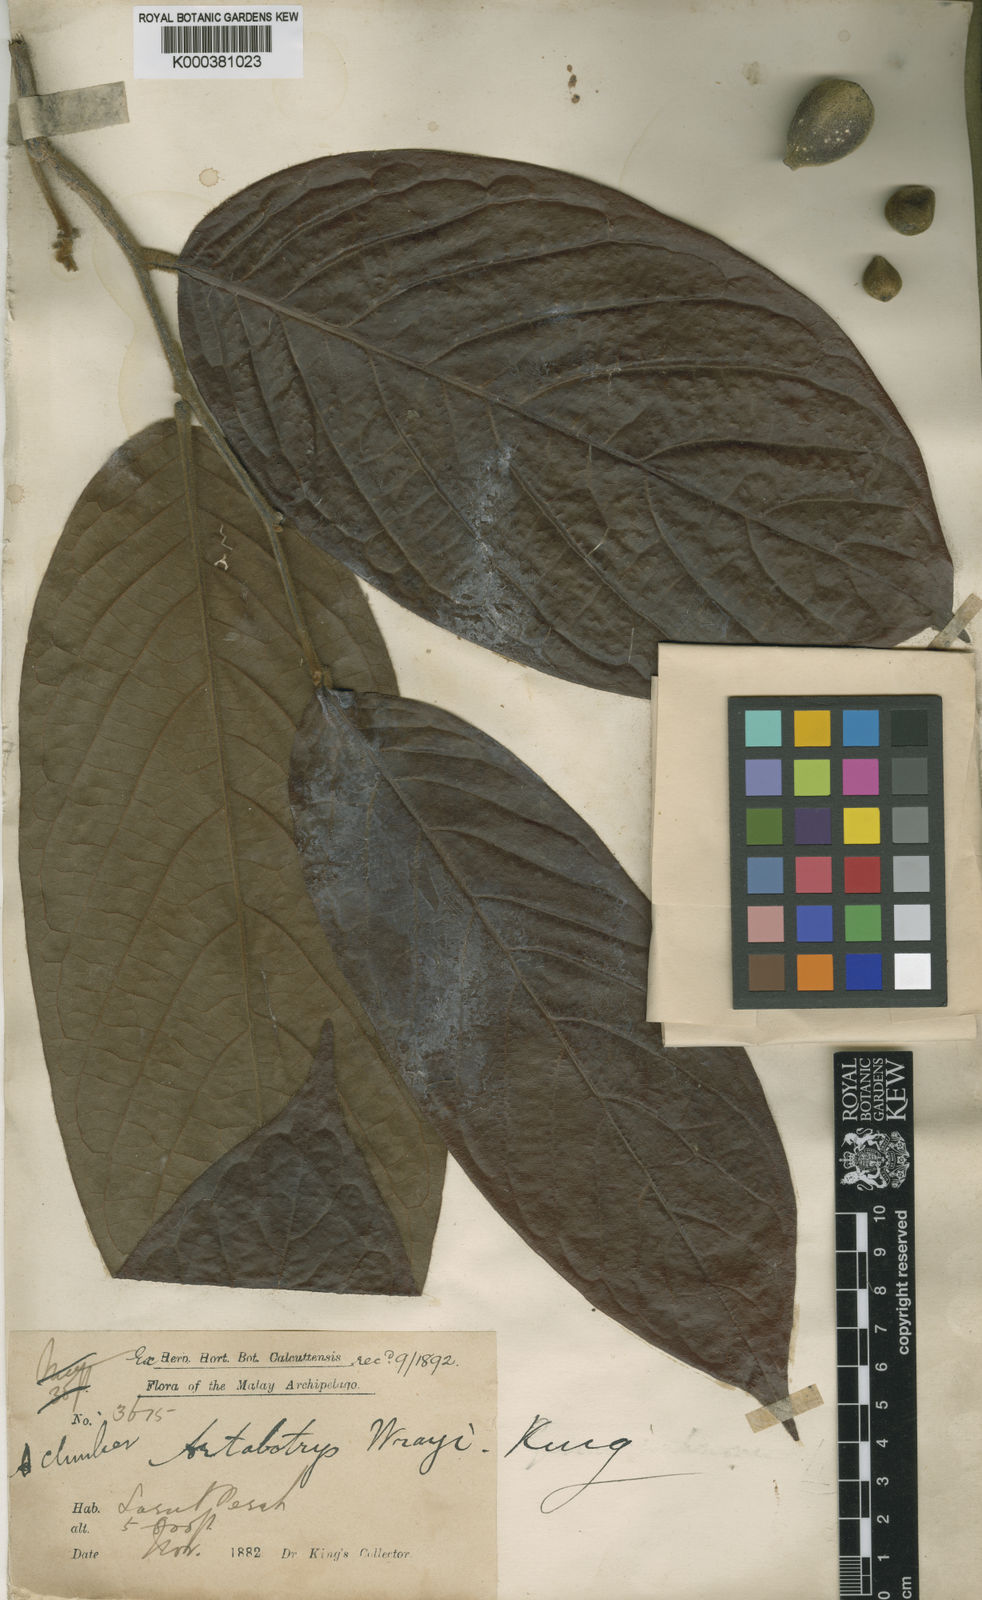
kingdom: Plantae
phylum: Tracheophyta
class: Magnoliopsida
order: Magnoliales
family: Annonaceae
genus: Artabotrys
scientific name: Artabotrys wrayi
